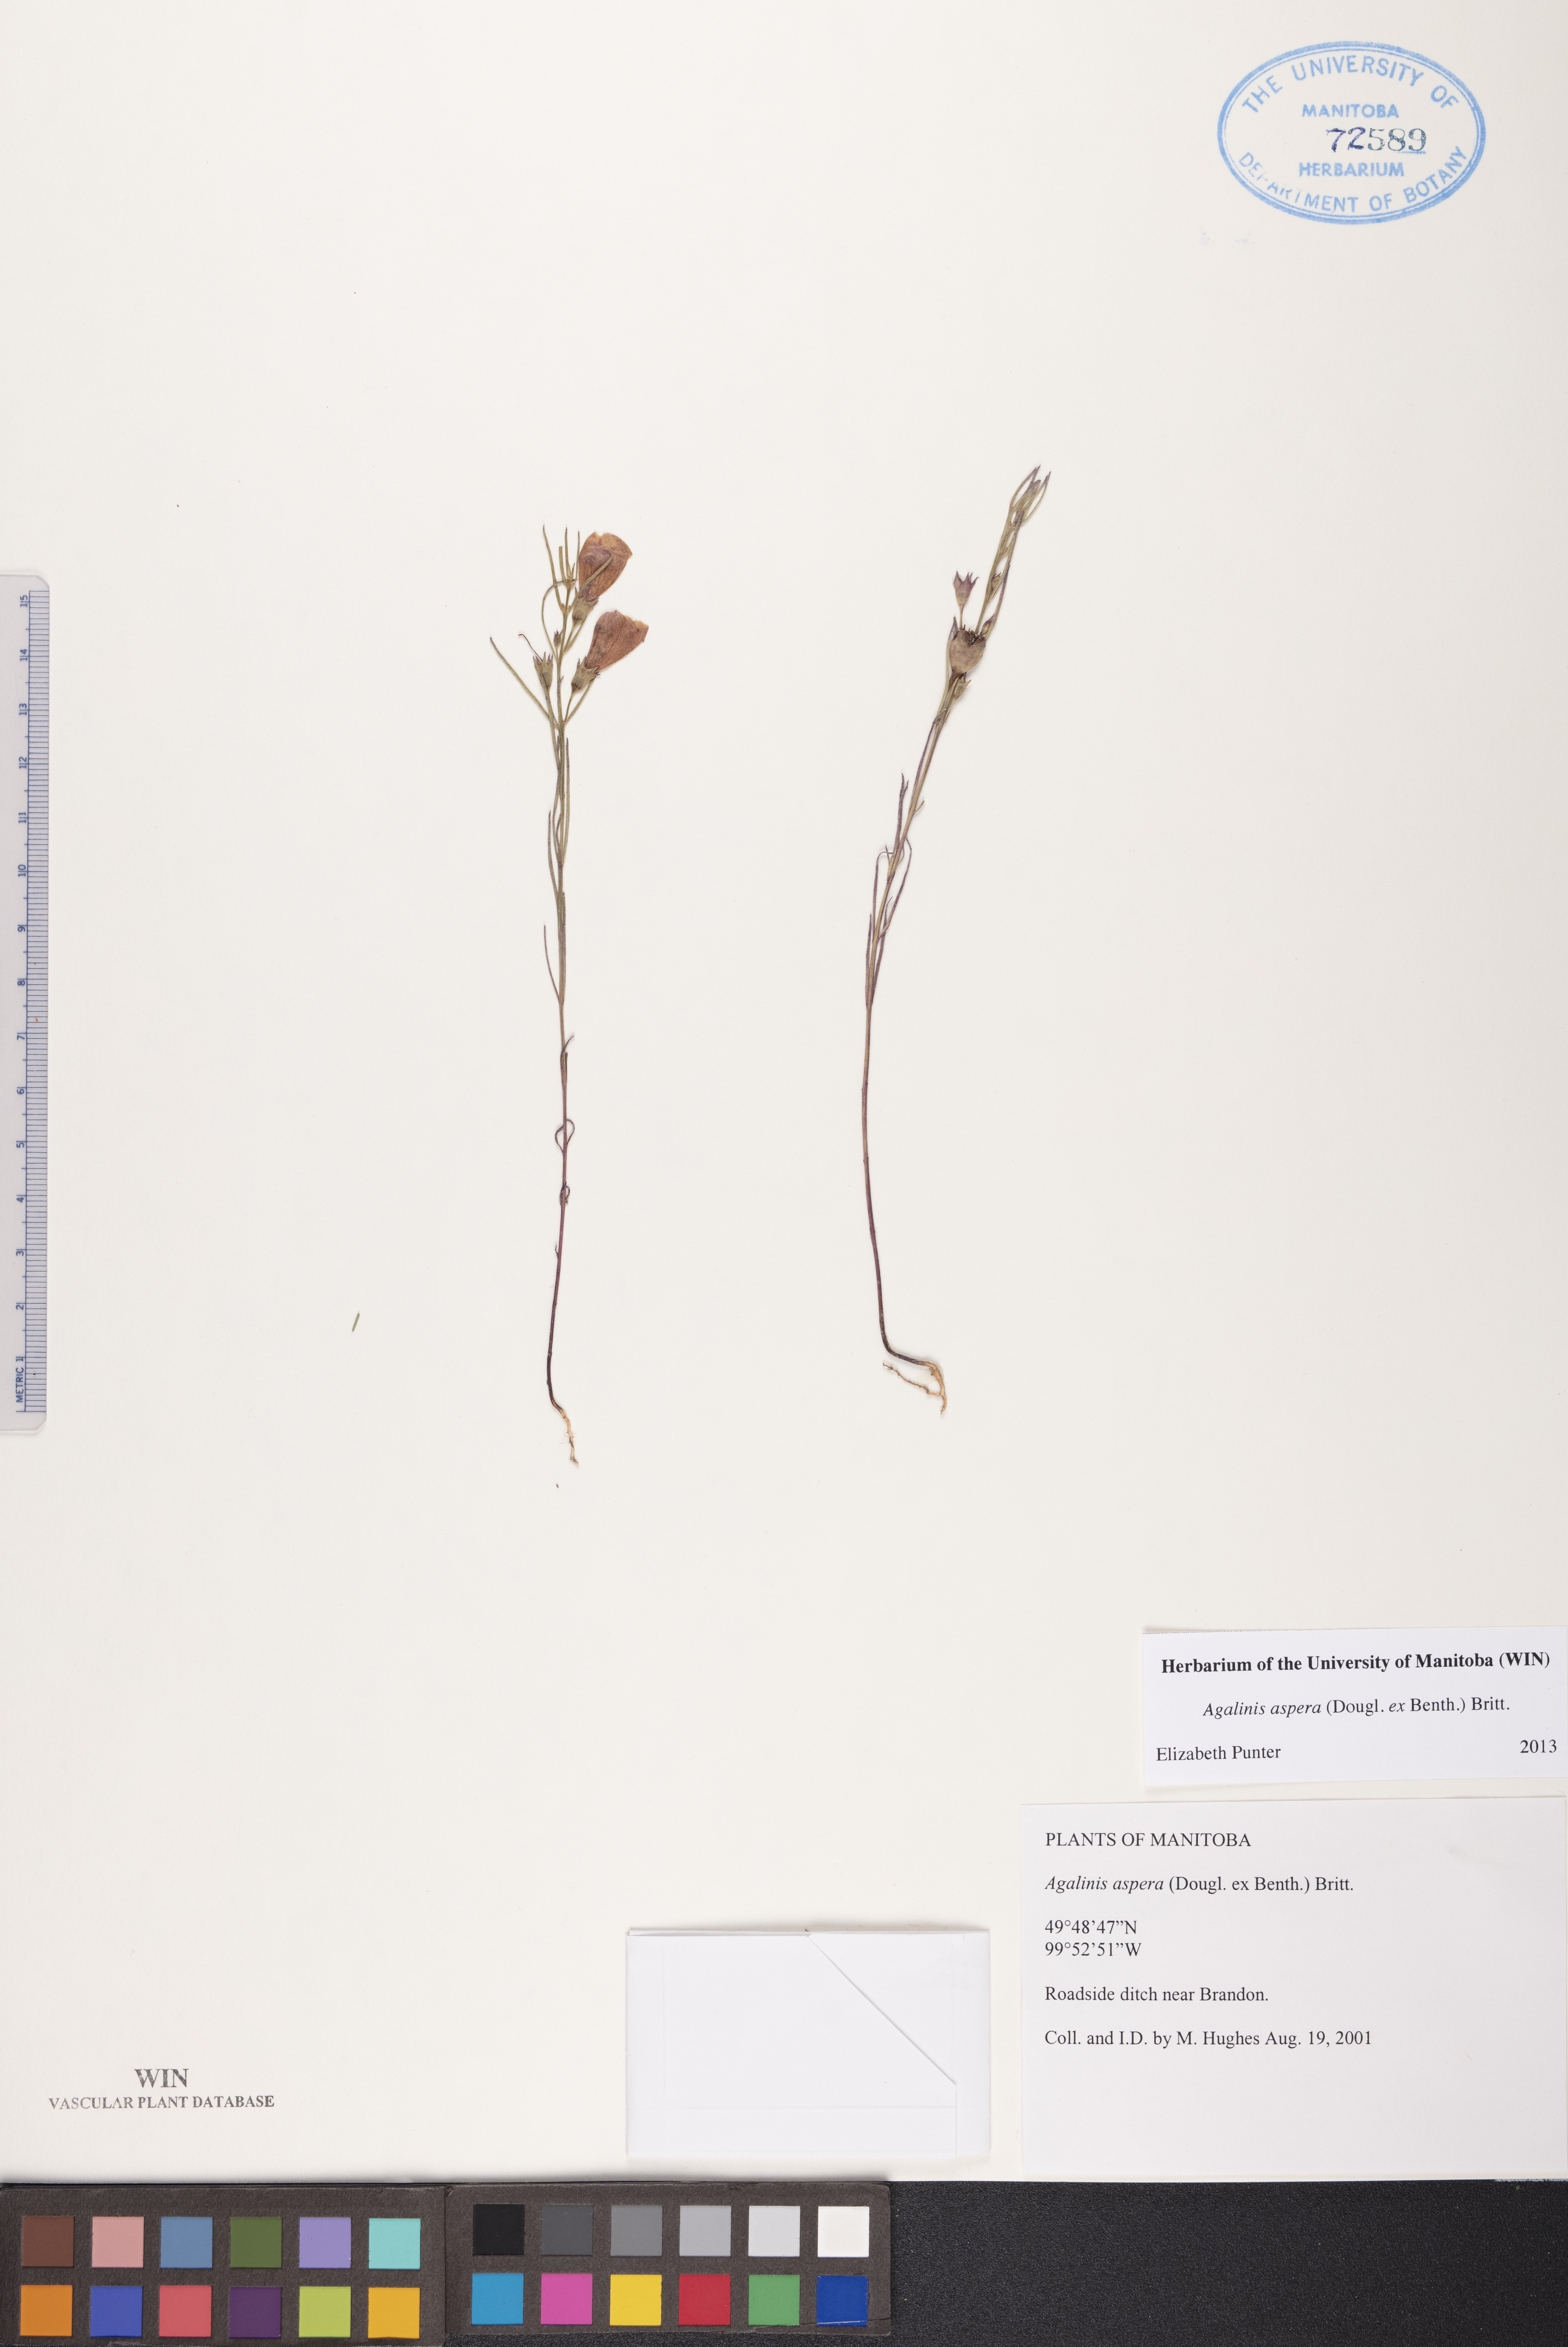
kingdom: Plantae
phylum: Tracheophyta
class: Magnoliopsida
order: Lamiales
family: Orobanchaceae
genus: Agalinis
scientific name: Agalinis aspera
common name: Rough agalinis
